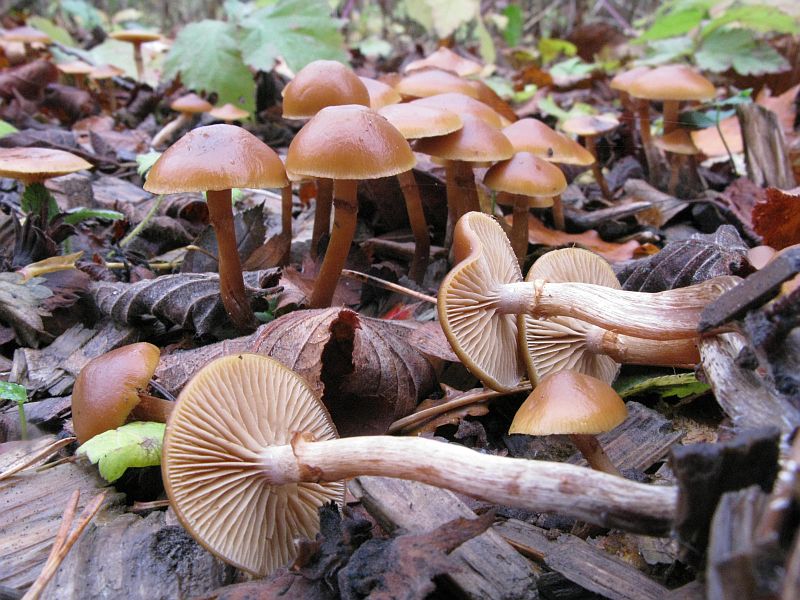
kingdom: Fungi
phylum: Basidiomycota
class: Agaricomycetes
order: Agaricales
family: Hymenogastraceae
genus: Galerina
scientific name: Galerina marginata
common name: randbæltet hjelmhat
